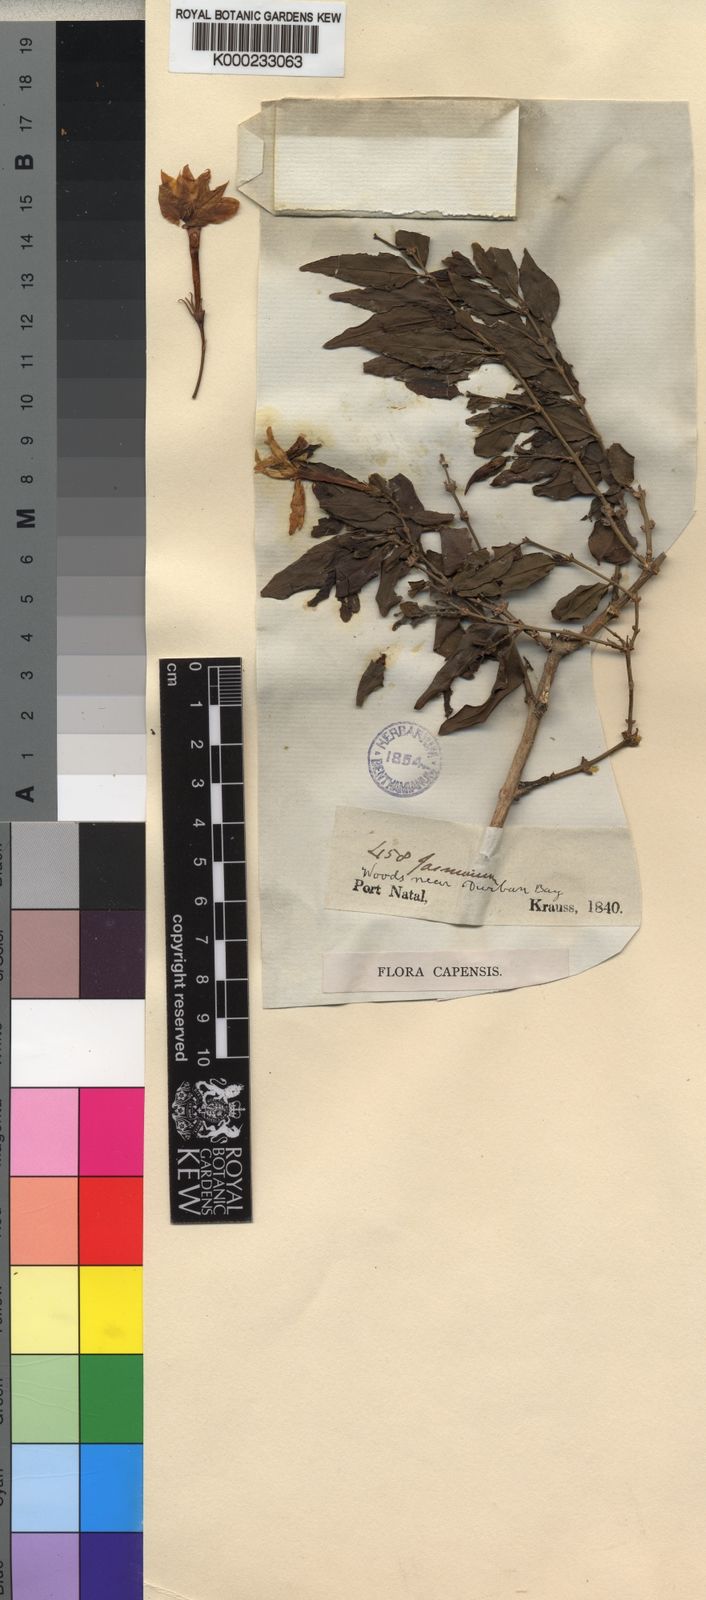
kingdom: Plantae
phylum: Tracheophyta
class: Magnoliopsida
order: Lamiales
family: Oleaceae
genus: Jasminum
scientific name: Jasminum multipartitum
